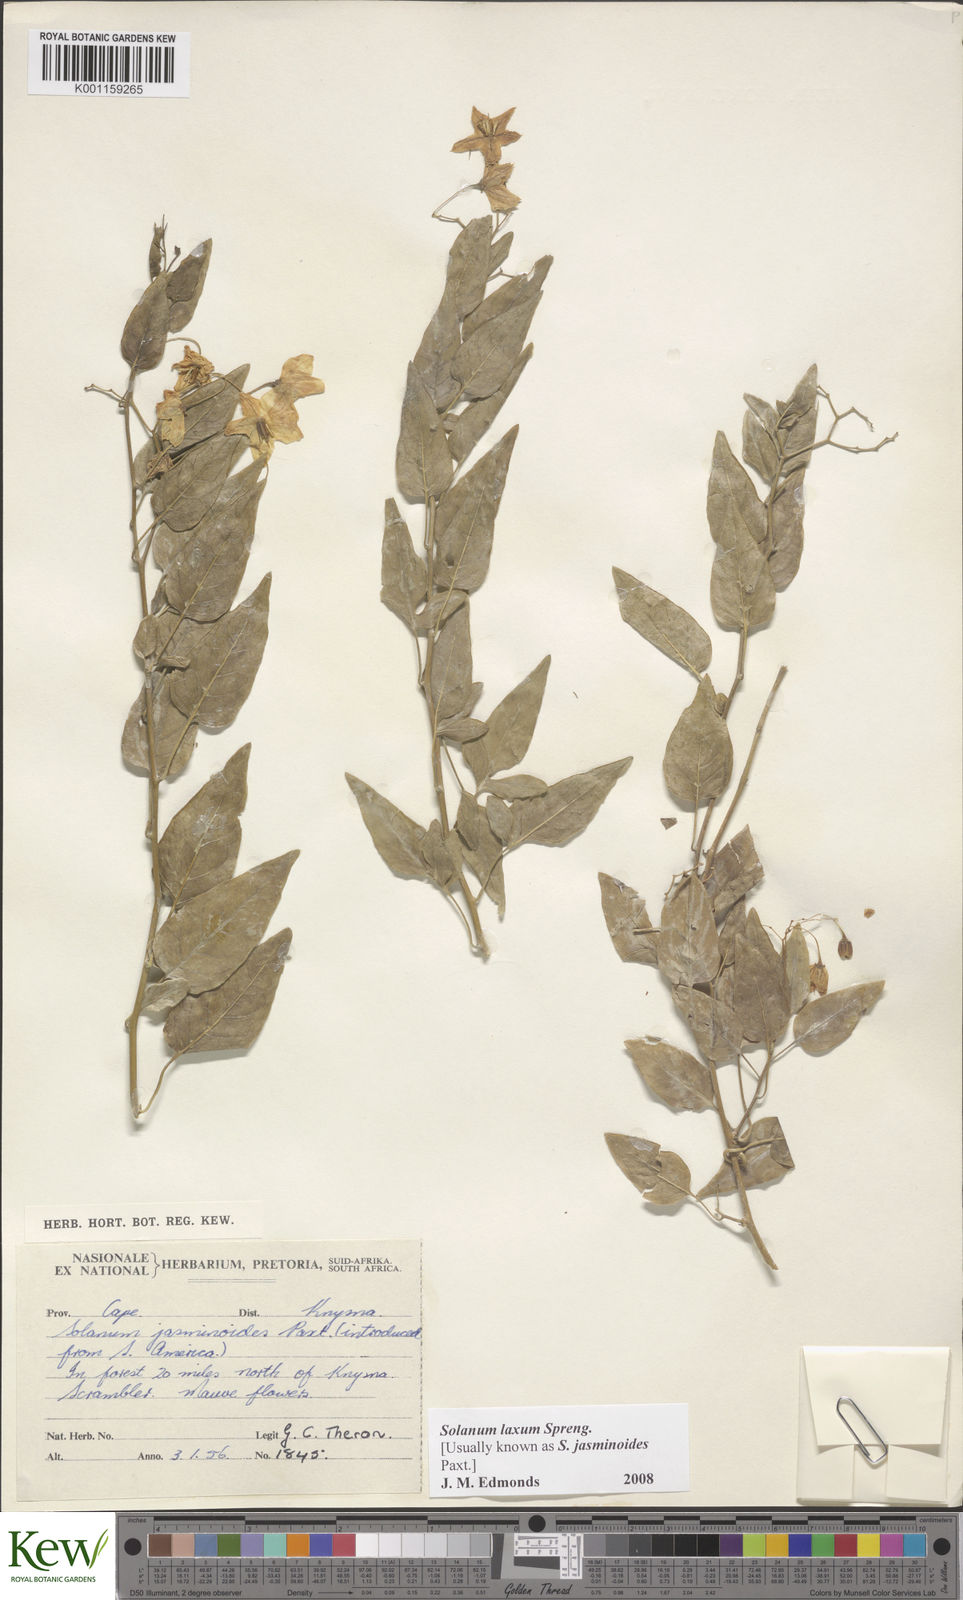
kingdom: Plantae
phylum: Tracheophyta
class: Magnoliopsida
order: Solanales
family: Solanaceae
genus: Solanum
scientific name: Solanum laxum
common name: Nightshade
